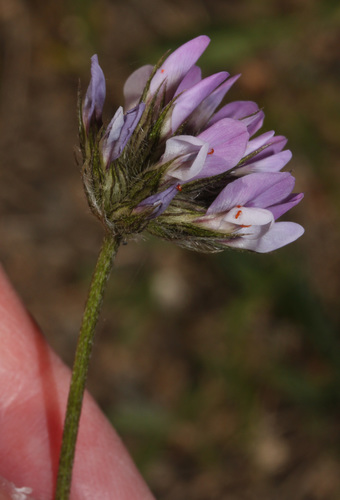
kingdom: Plantae
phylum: Tracheophyta
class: Magnoliopsida
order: Fabales
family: Fabaceae
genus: Bituminaria
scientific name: Bituminaria bituminosa
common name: Arabian pea
